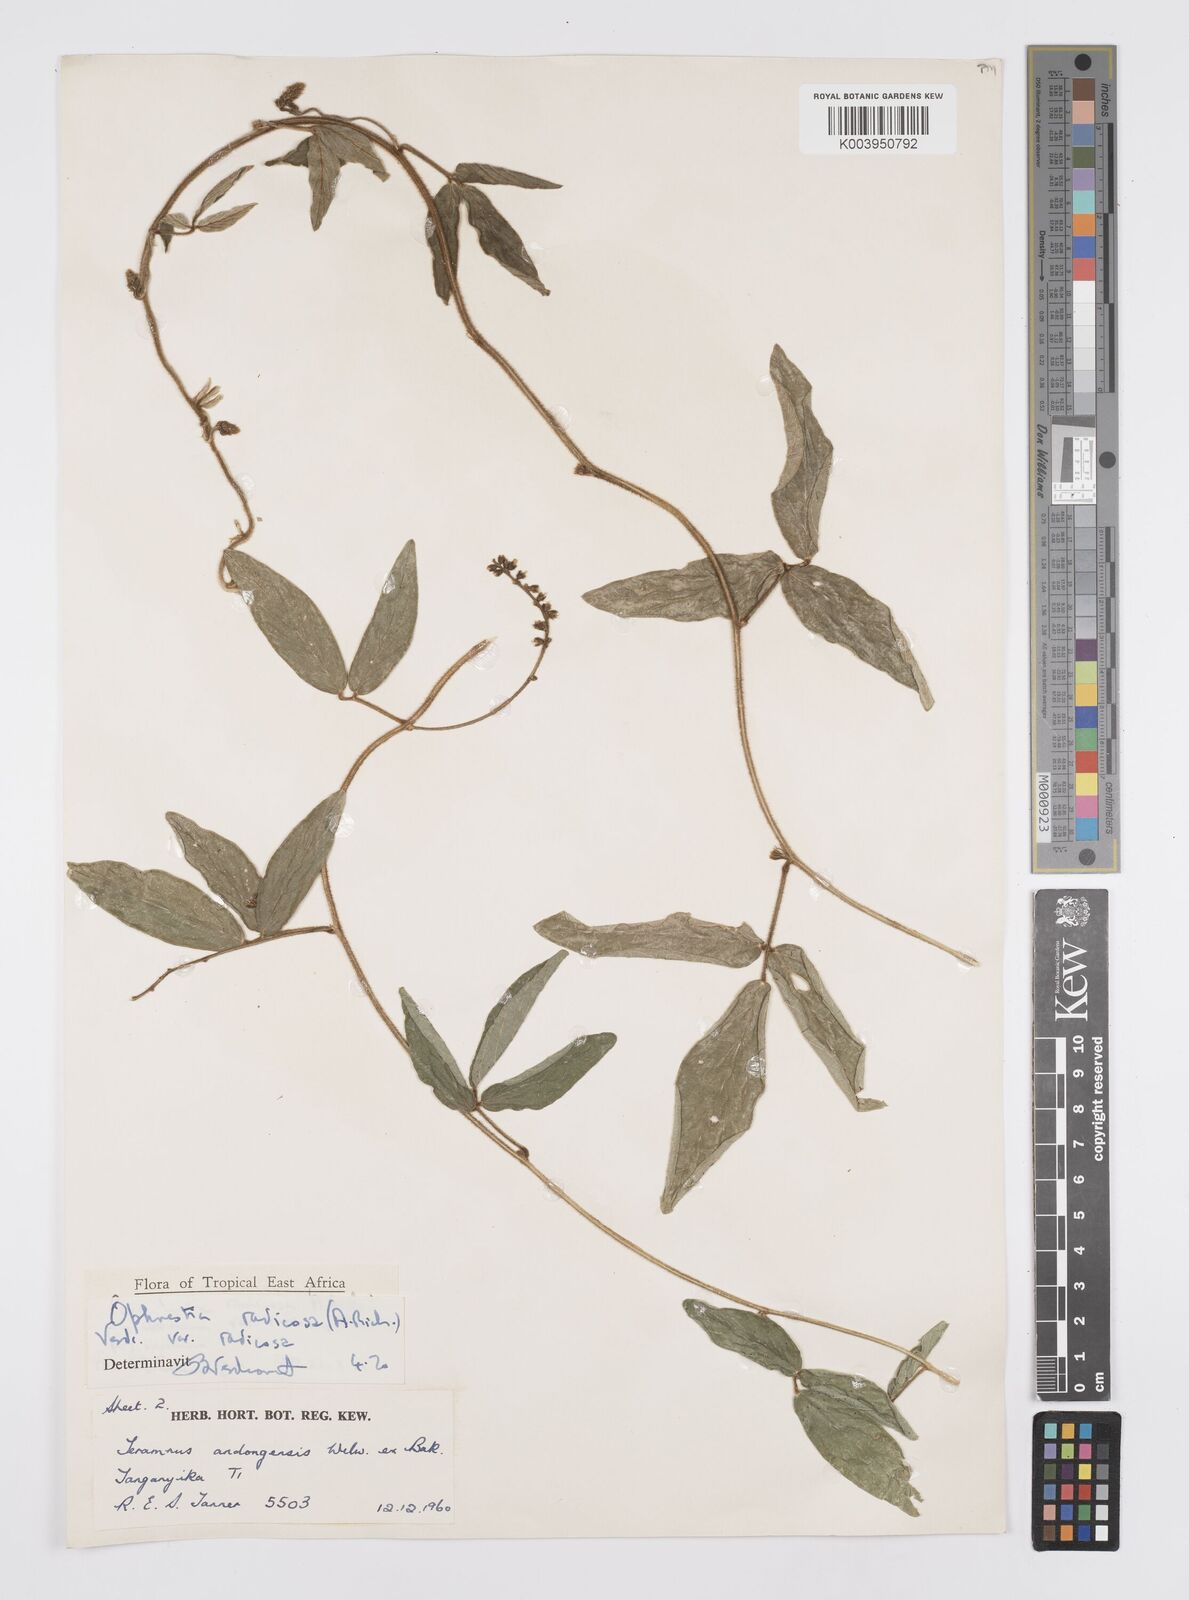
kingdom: Plantae
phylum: Tracheophyta
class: Magnoliopsida
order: Fabales
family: Fabaceae
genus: Ophrestia
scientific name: Ophrestia radicosa
